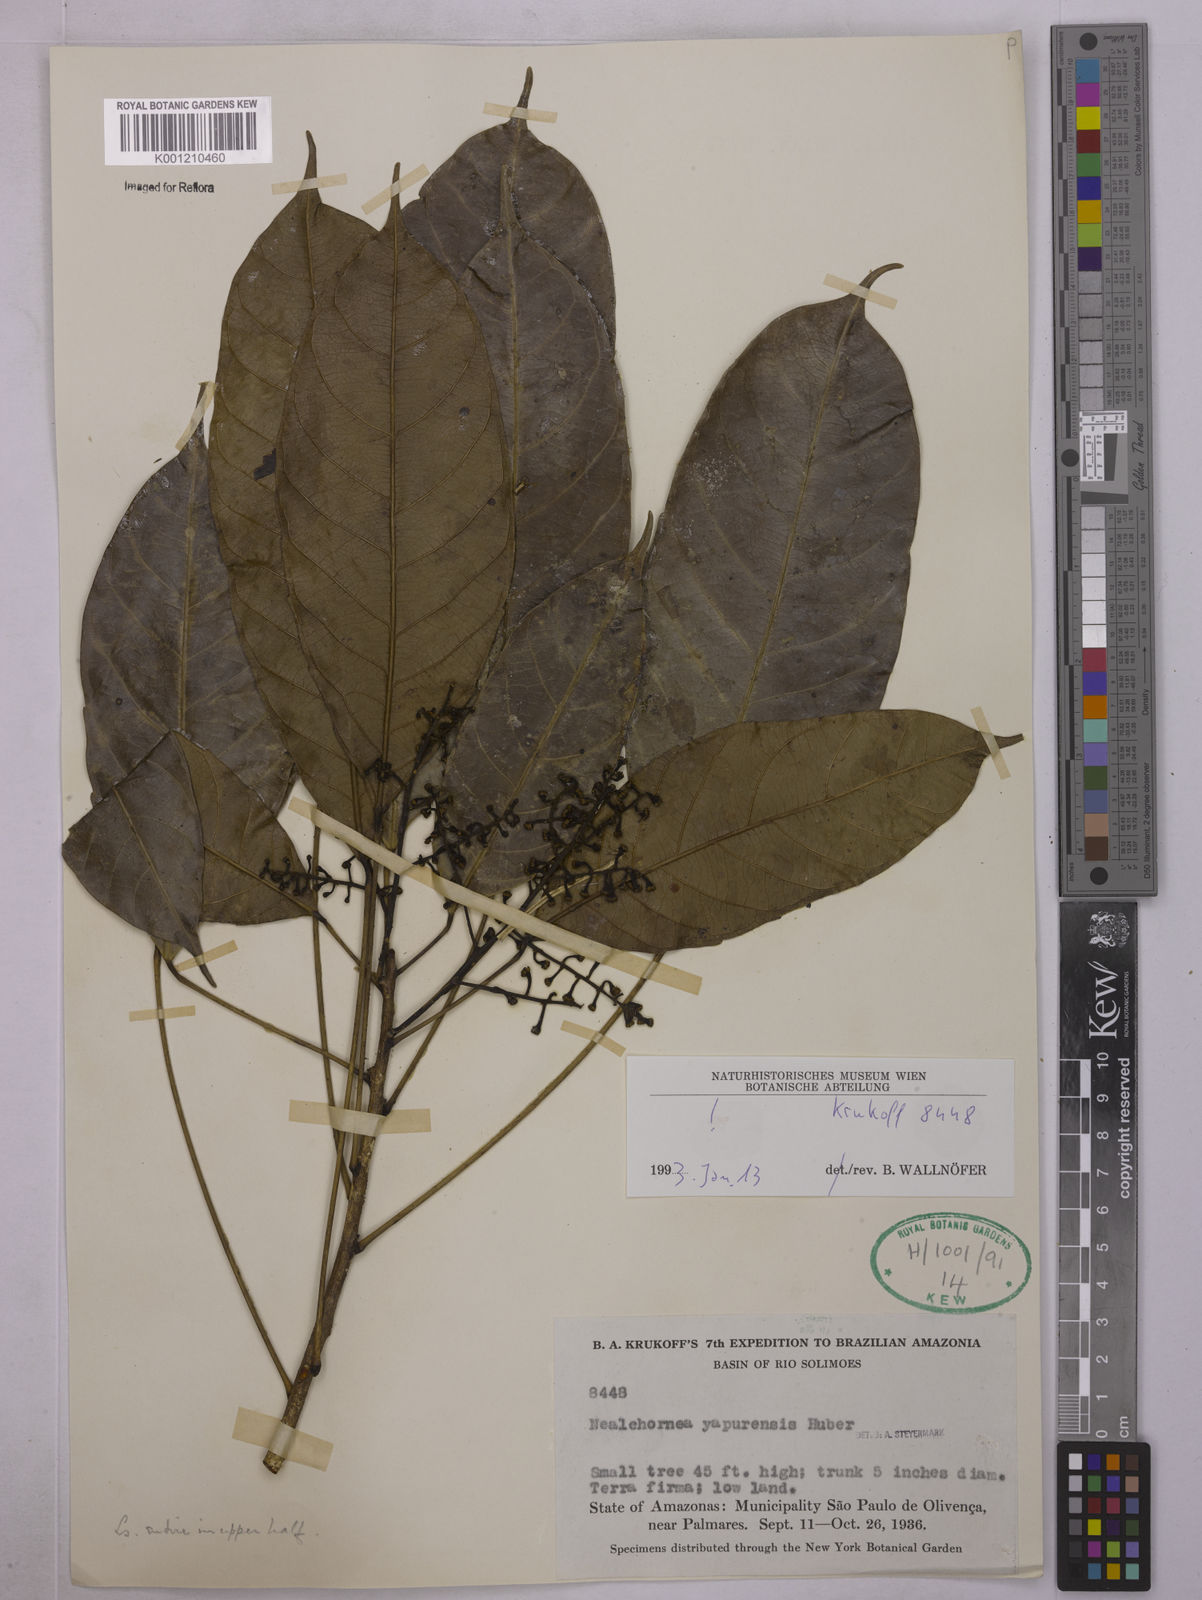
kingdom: Plantae
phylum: Tracheophyta
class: Magnoliopsida
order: Malpighiales
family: Euphorbiaceae
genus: Nealchornea
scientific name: Nealchornea yapurensis
